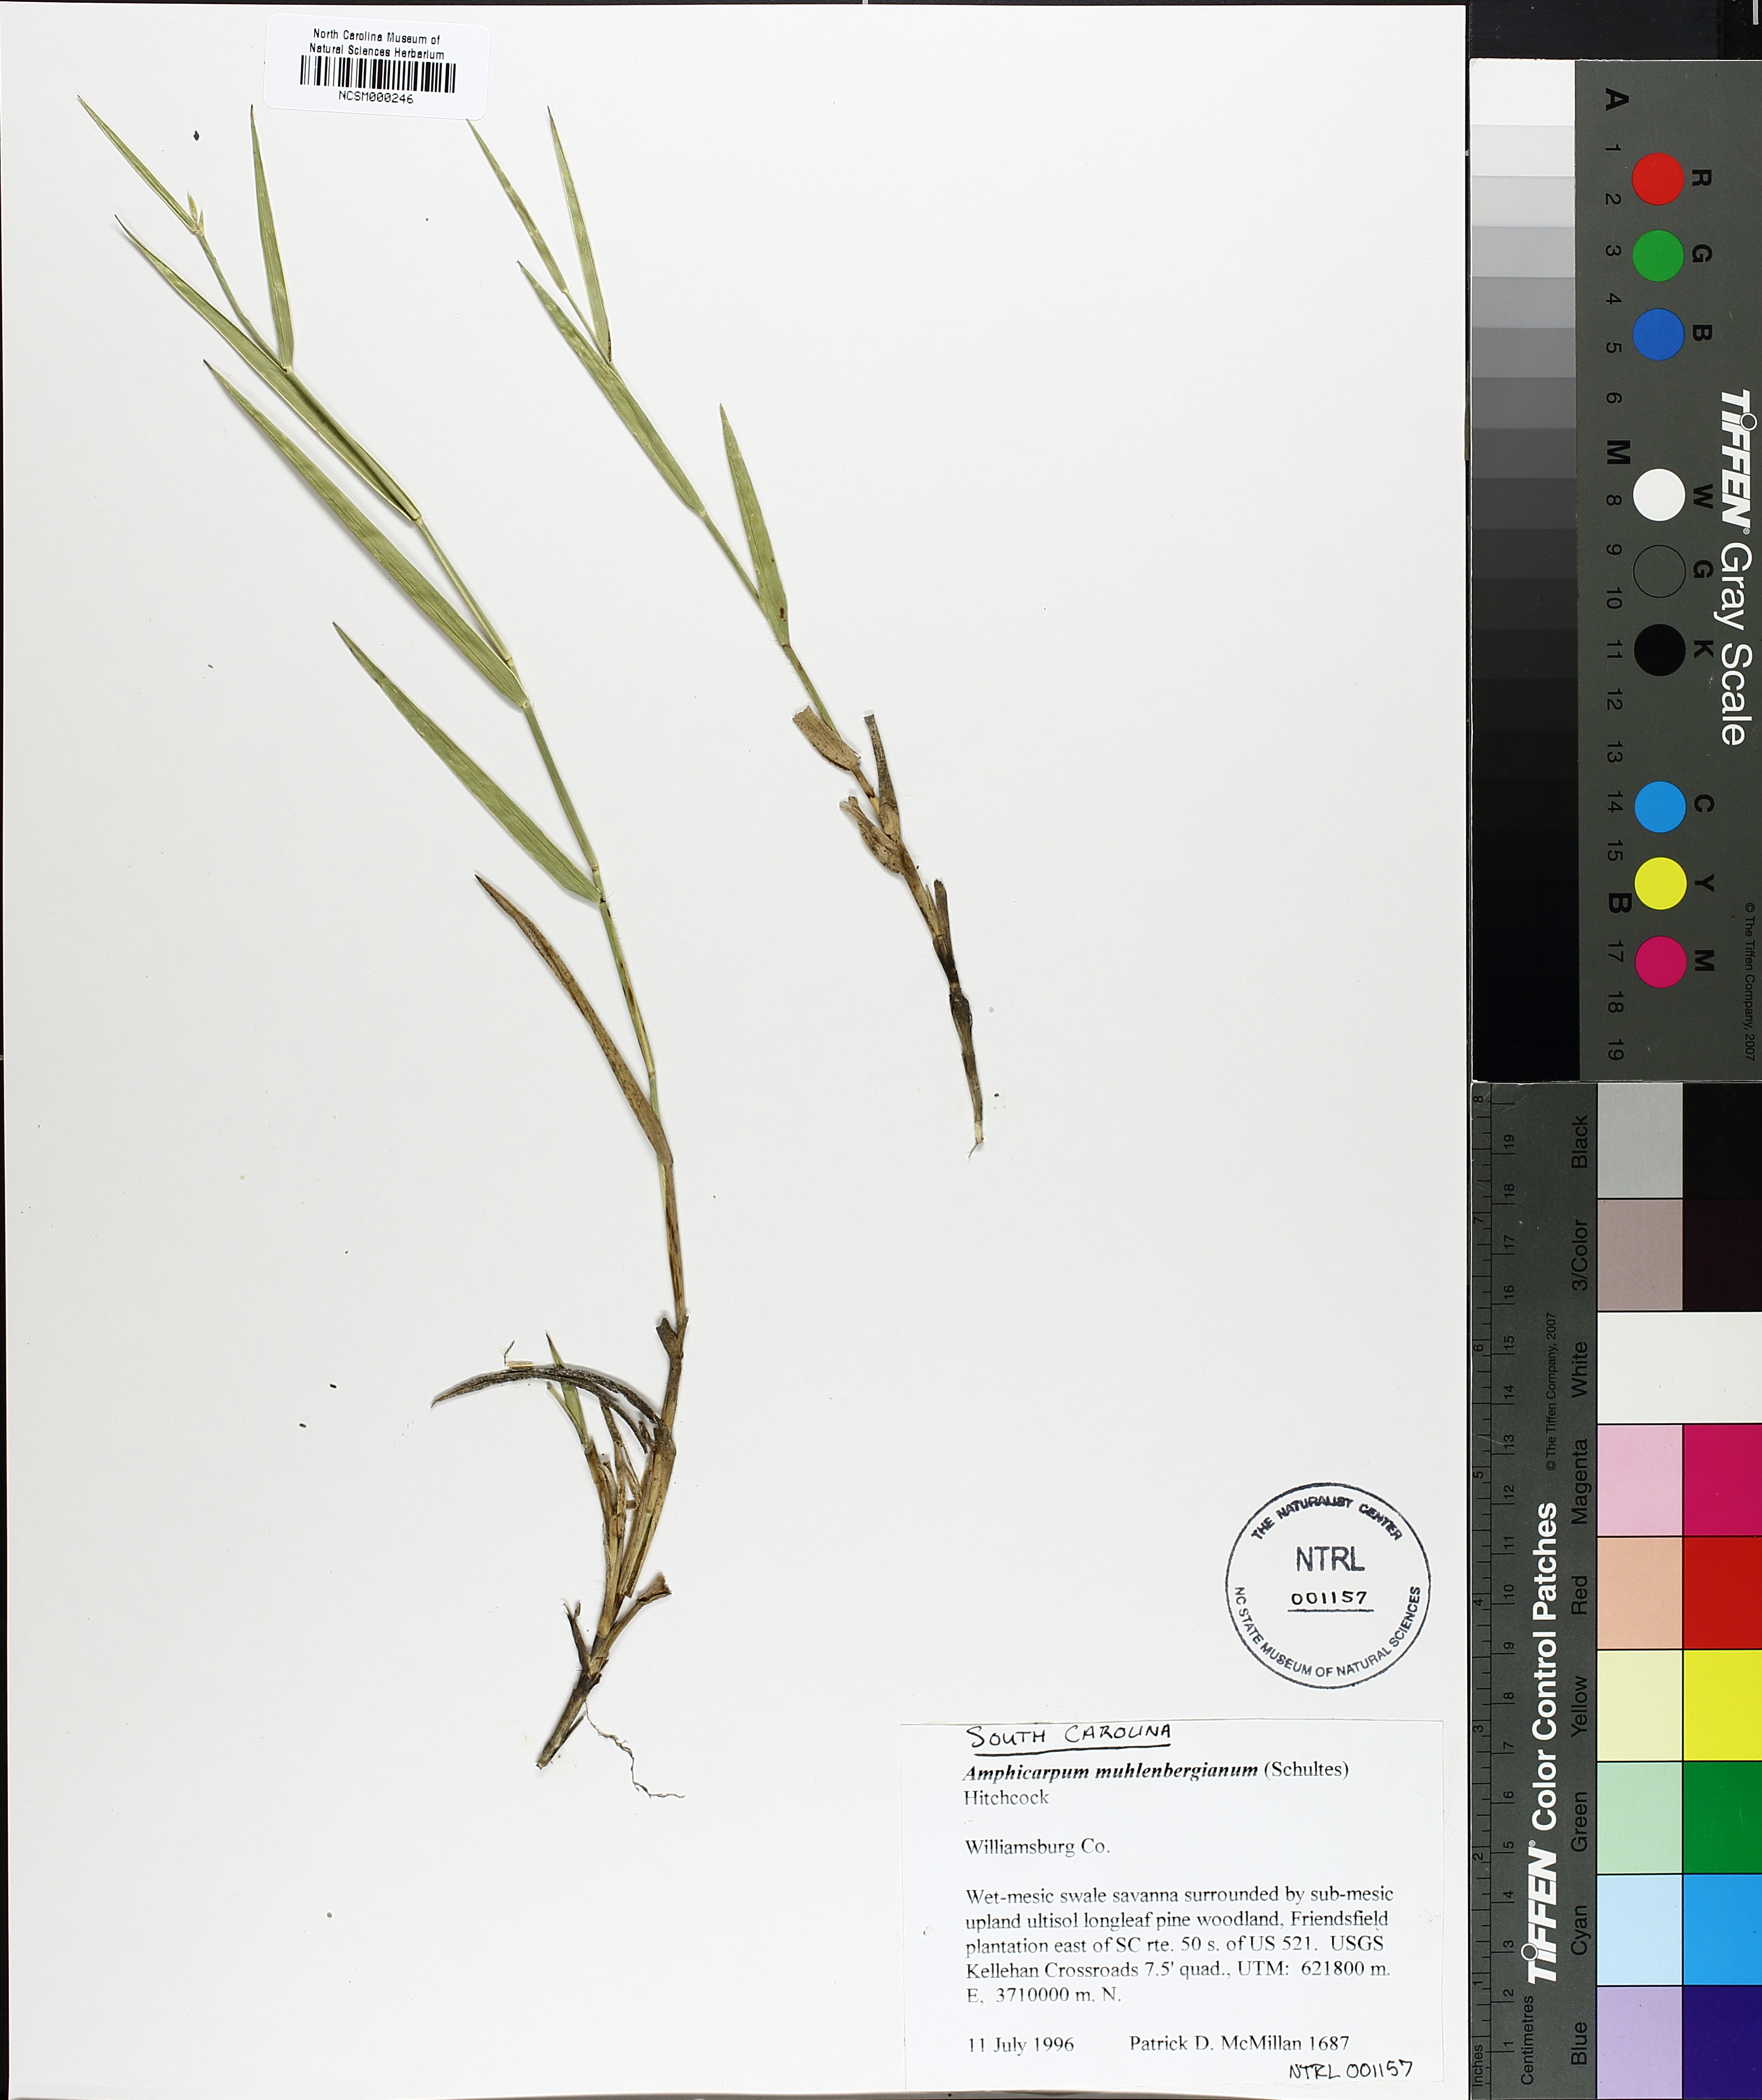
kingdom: Plantae
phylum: Tracheophyta
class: Liliopsida
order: Poales
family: Poaceae
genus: Amphicarpum
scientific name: Amphicarpum muhlenbergianum
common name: Blue maidencane
